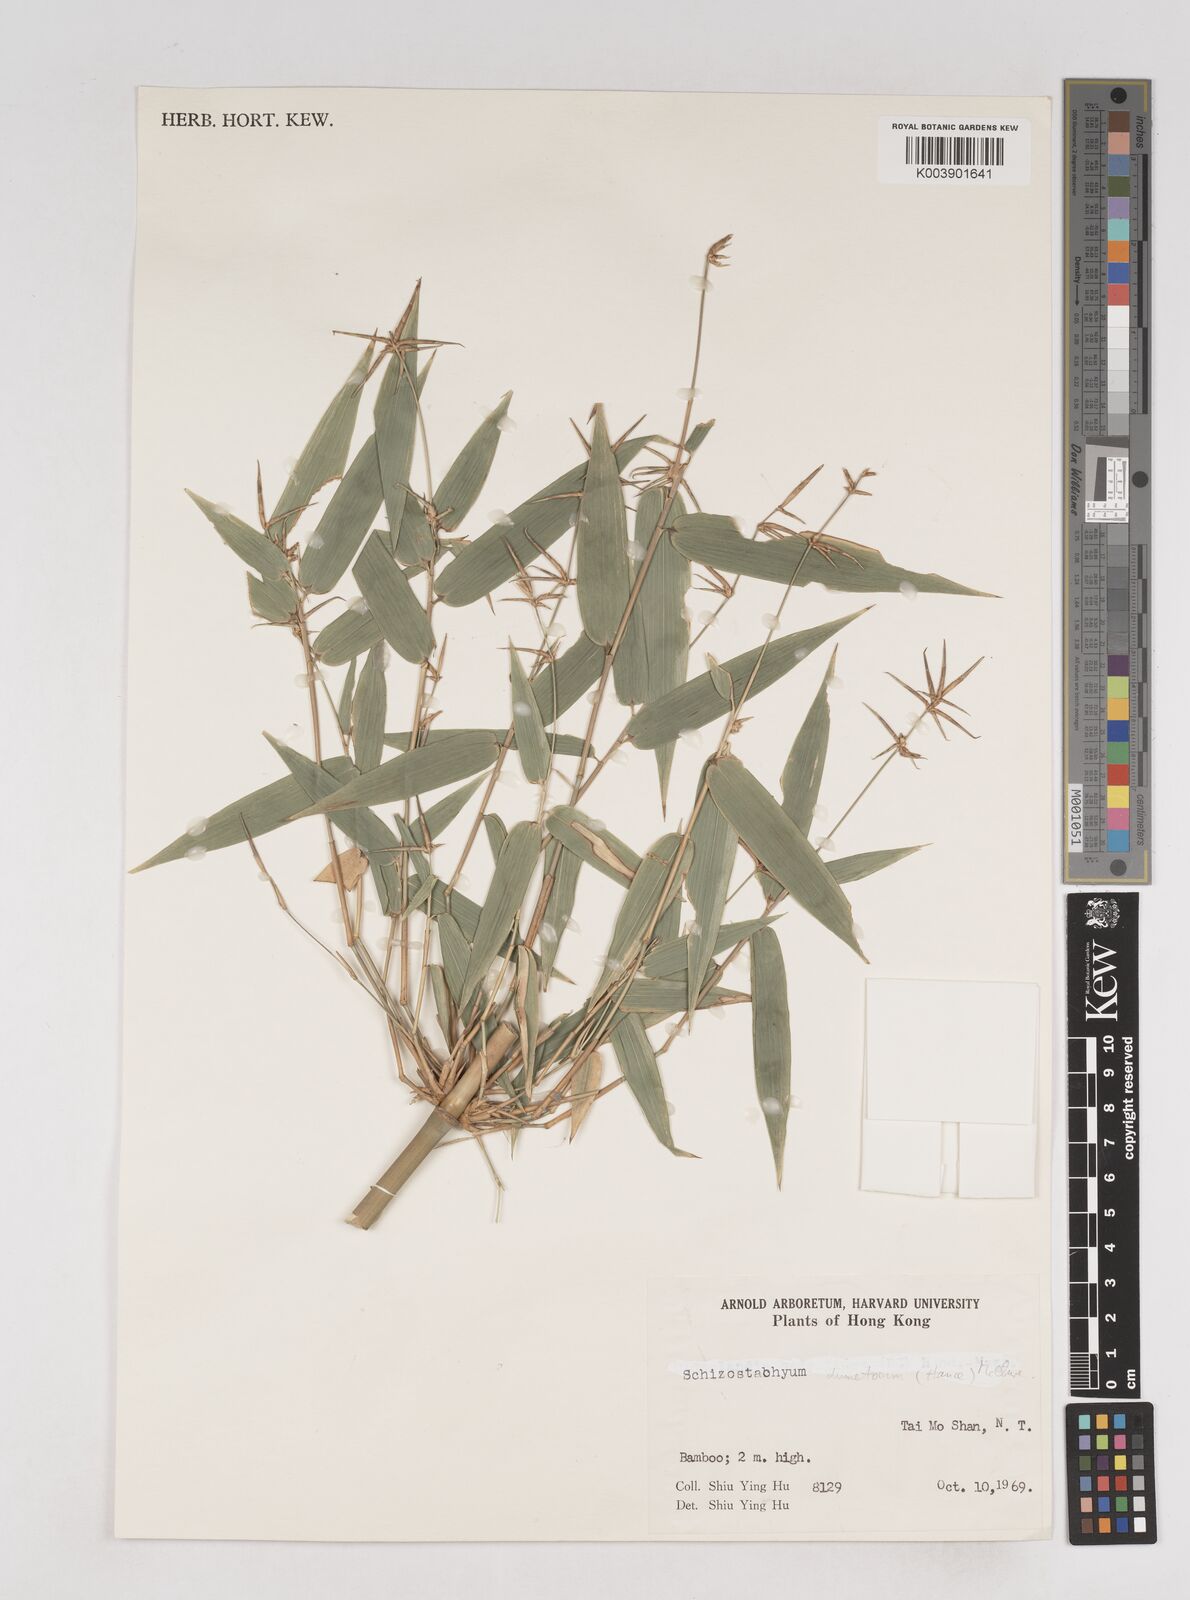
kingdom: Plantae
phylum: Tracheophyta
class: Liliopsida
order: Poales
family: Poaceae
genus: Schizostachyum
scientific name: Schizostachyum dumetorum
